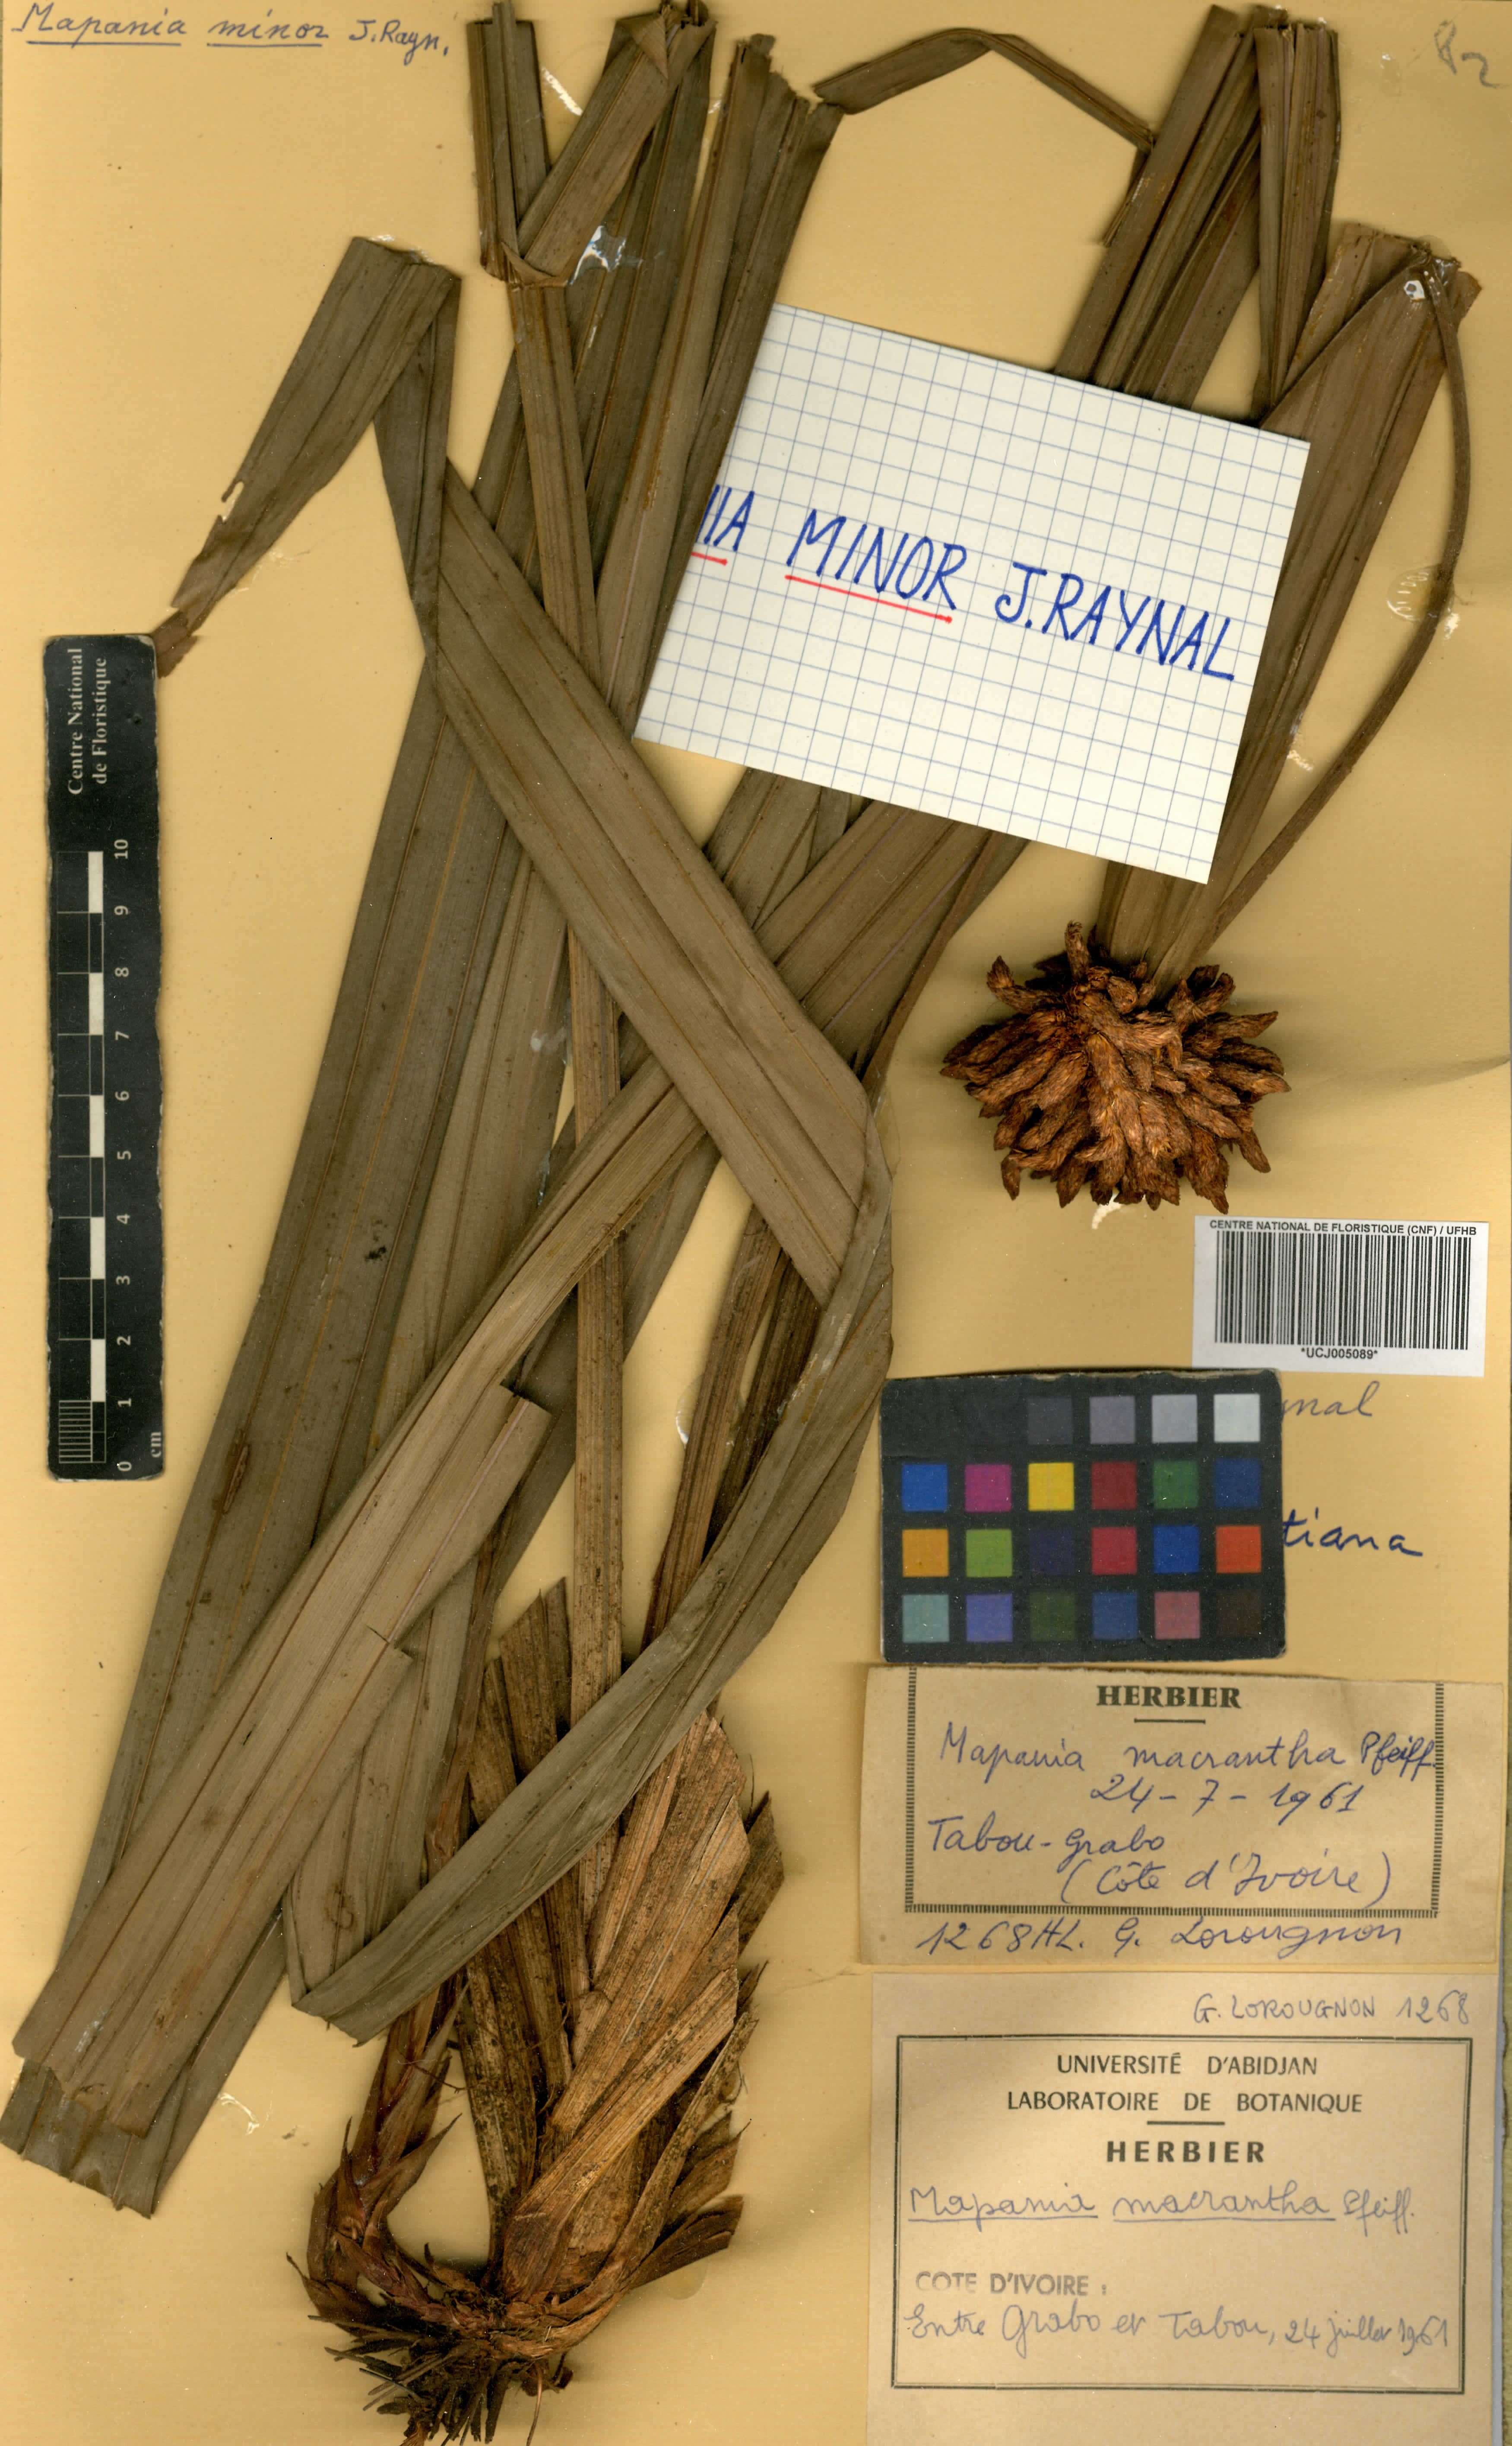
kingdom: Plantae
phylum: Tracheophyta
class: Liliopsida
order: Poales
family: Cyperaceae
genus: Mapania
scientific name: Mapania macrantha
